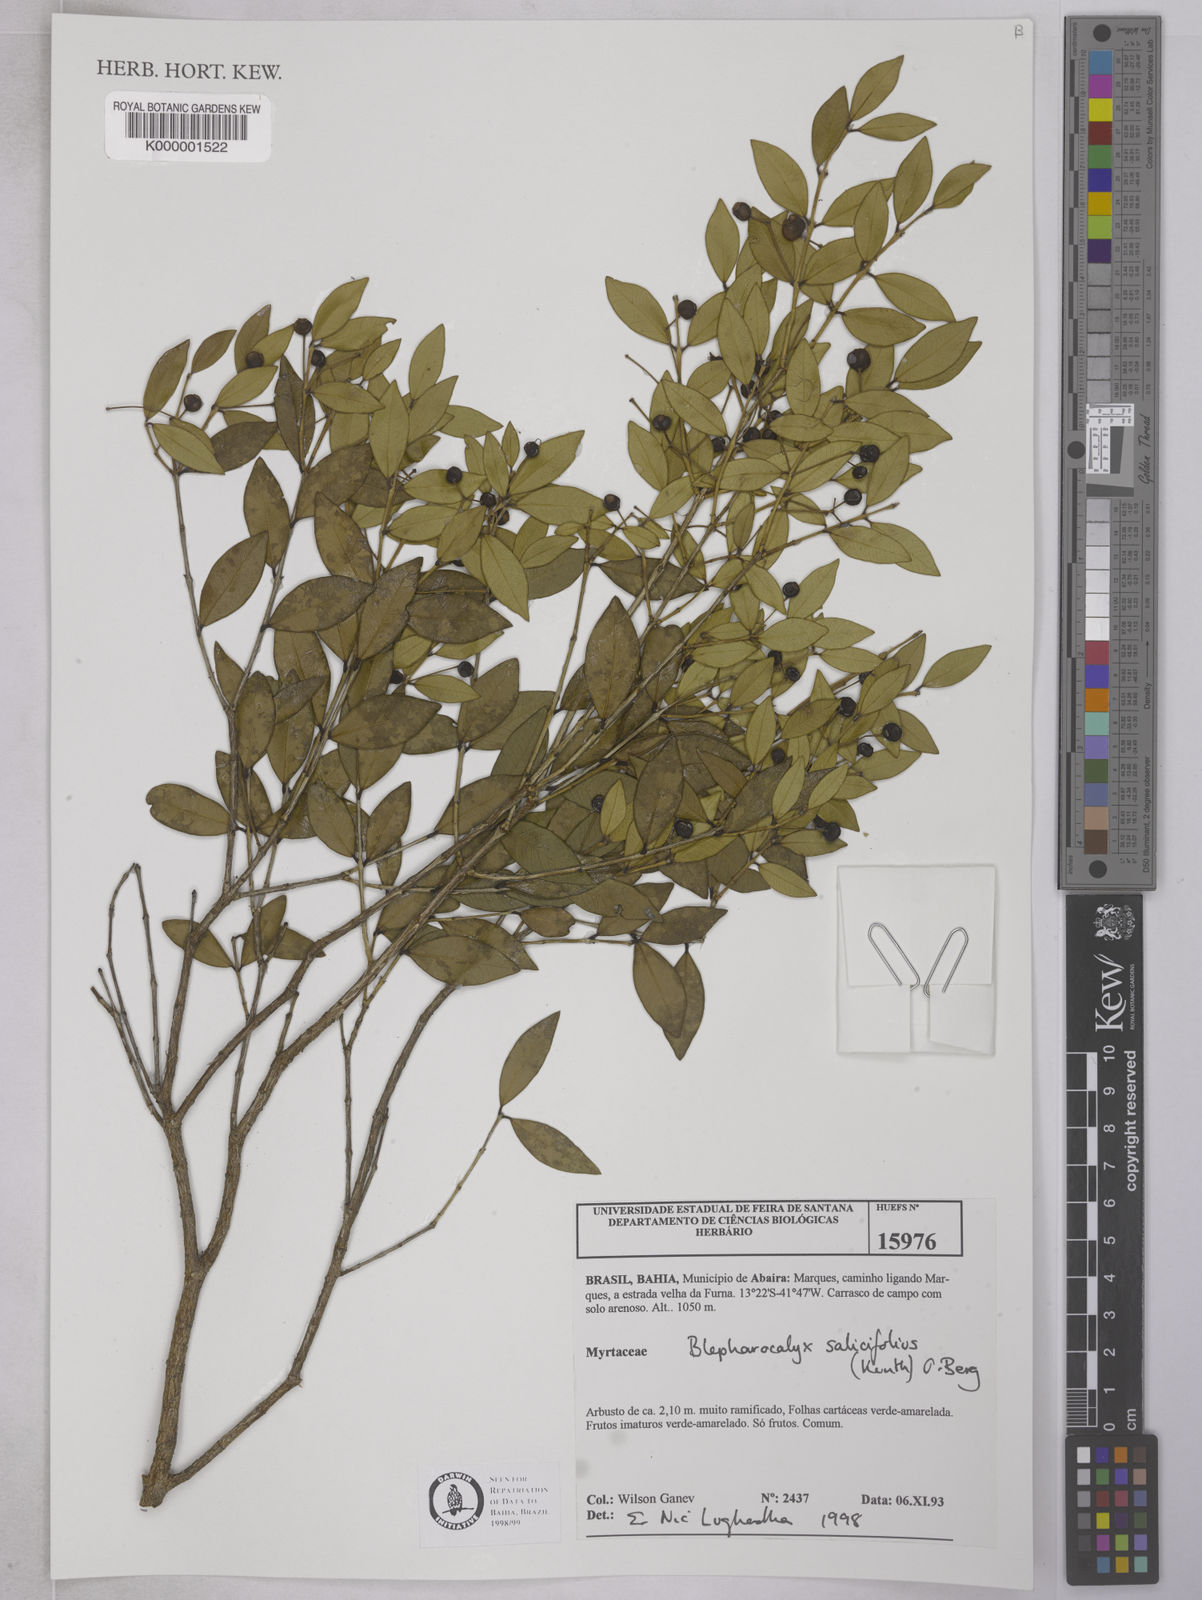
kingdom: Plantae
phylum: Tracheophyta
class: Magnoliopsida
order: Myrtales
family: Myrtaceae
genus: Blepharocalyx
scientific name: Blepharocalyx salicifolius
